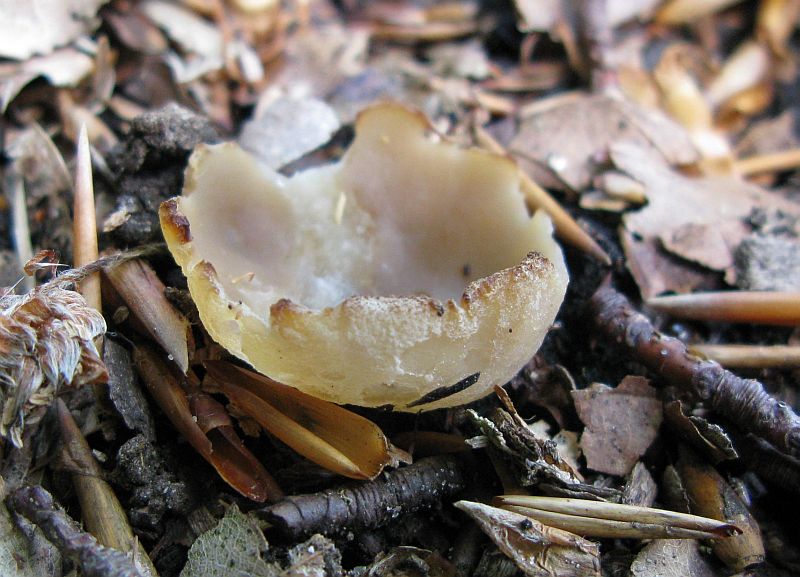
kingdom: Fungi
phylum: Ascomycota
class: Pezizomycetes
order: Pezizales
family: Pezizaceae
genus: Peziza
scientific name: Peziza varia
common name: Ved-bægersvamp
